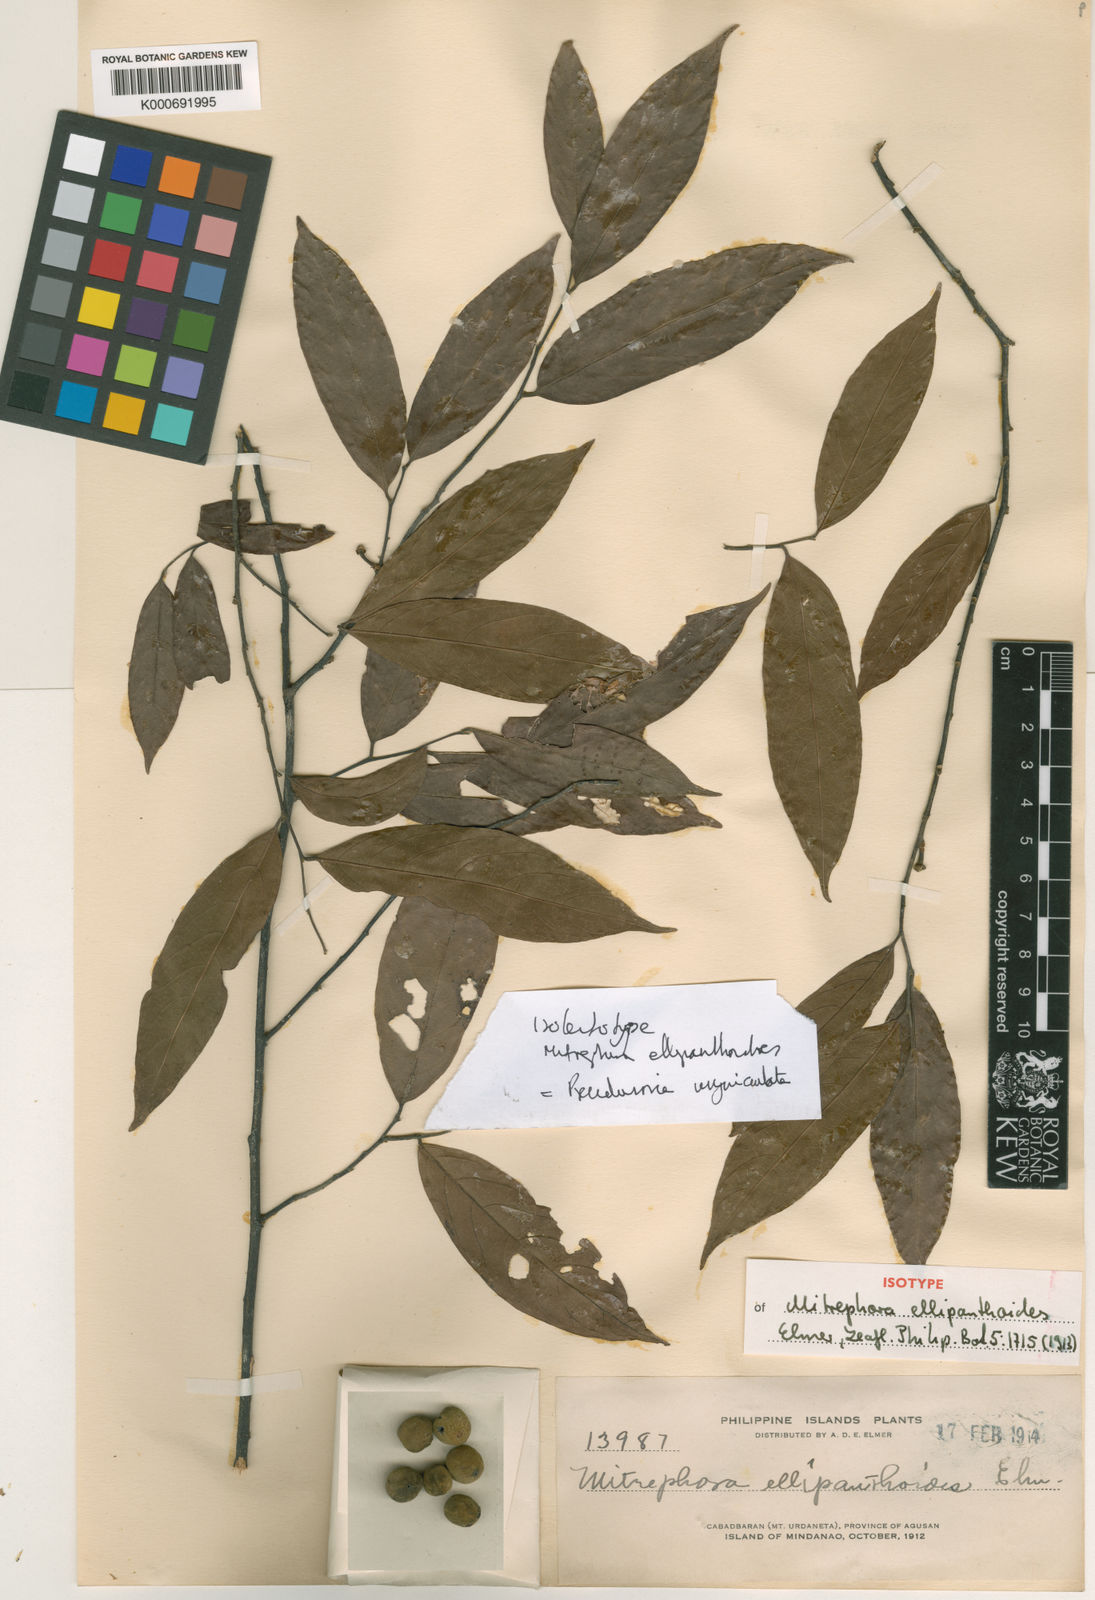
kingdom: Plantae
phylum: Tracheophyta
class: Magnoliopsida
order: Magnoliales
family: Annonaceae
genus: Pseuduvaria
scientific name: Pseuduvaria unguiculata
